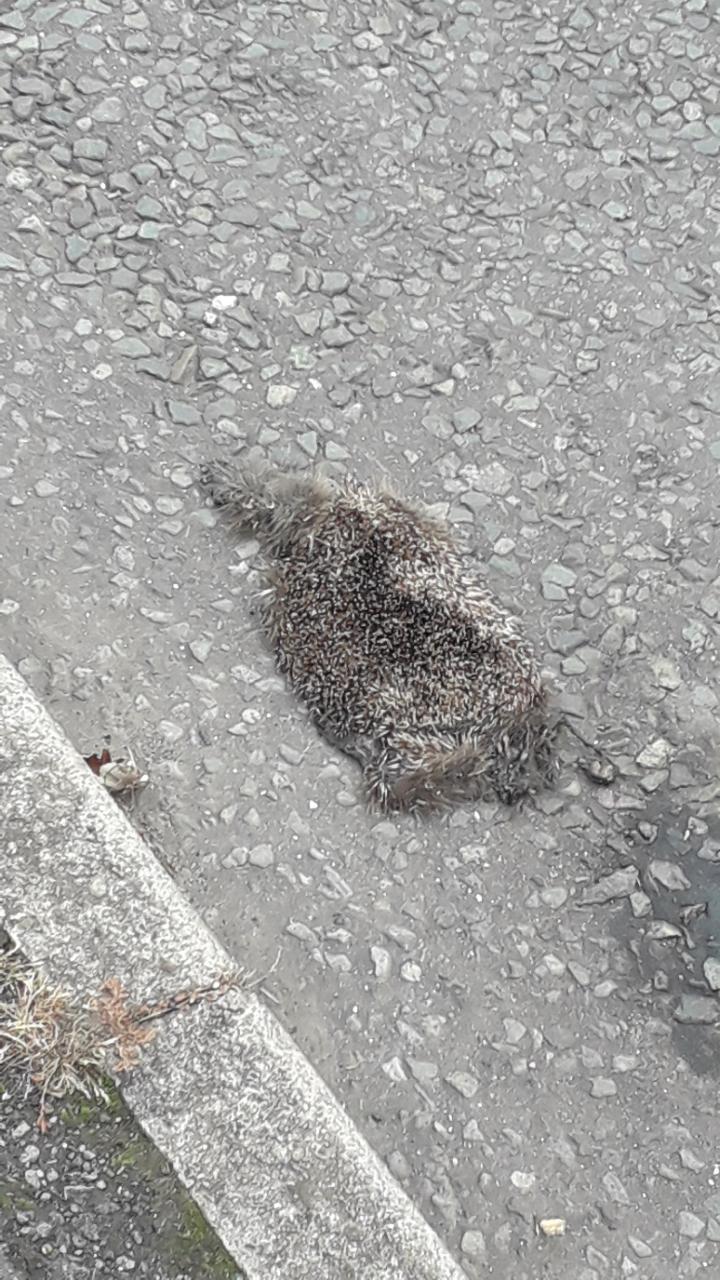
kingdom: Animalia
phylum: Chordata
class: Mammalia
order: Erinaceomorpha
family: Erinaceidae
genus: Erinaceus
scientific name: Erinaceus
